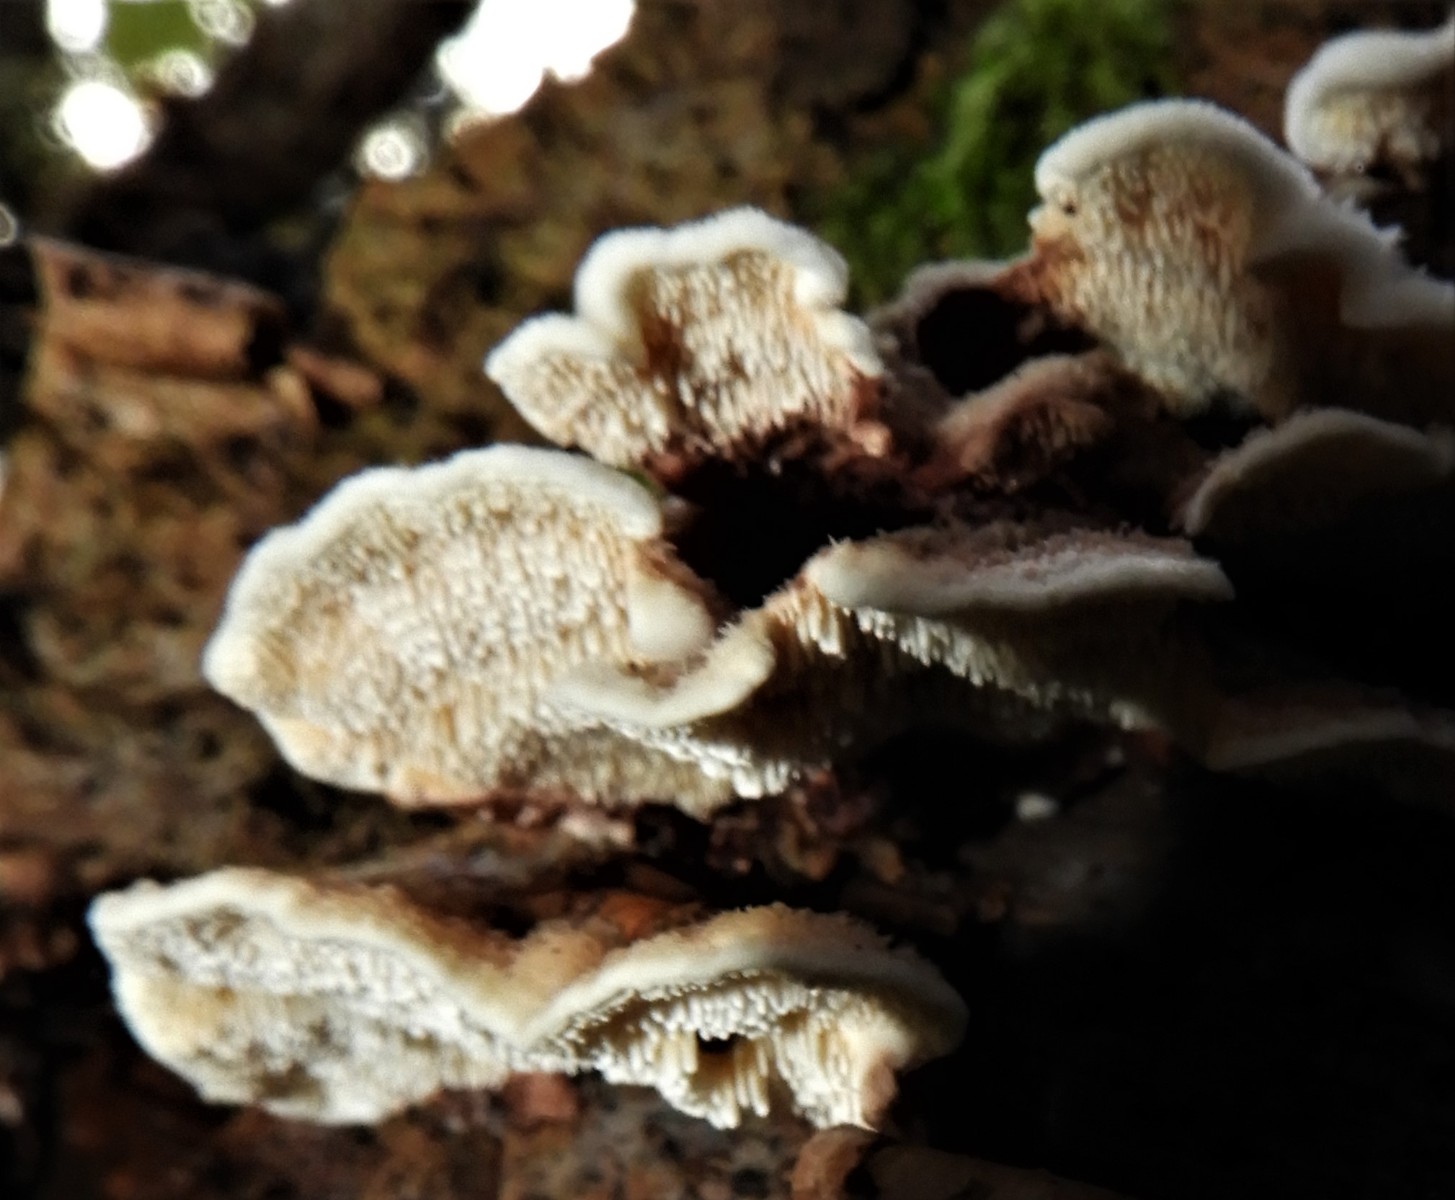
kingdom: Fungi
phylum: Basidiomycota
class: Agaricomycetes
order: Polyporales
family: Steccherinaceae
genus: Steccherinum
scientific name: Steccherinum
